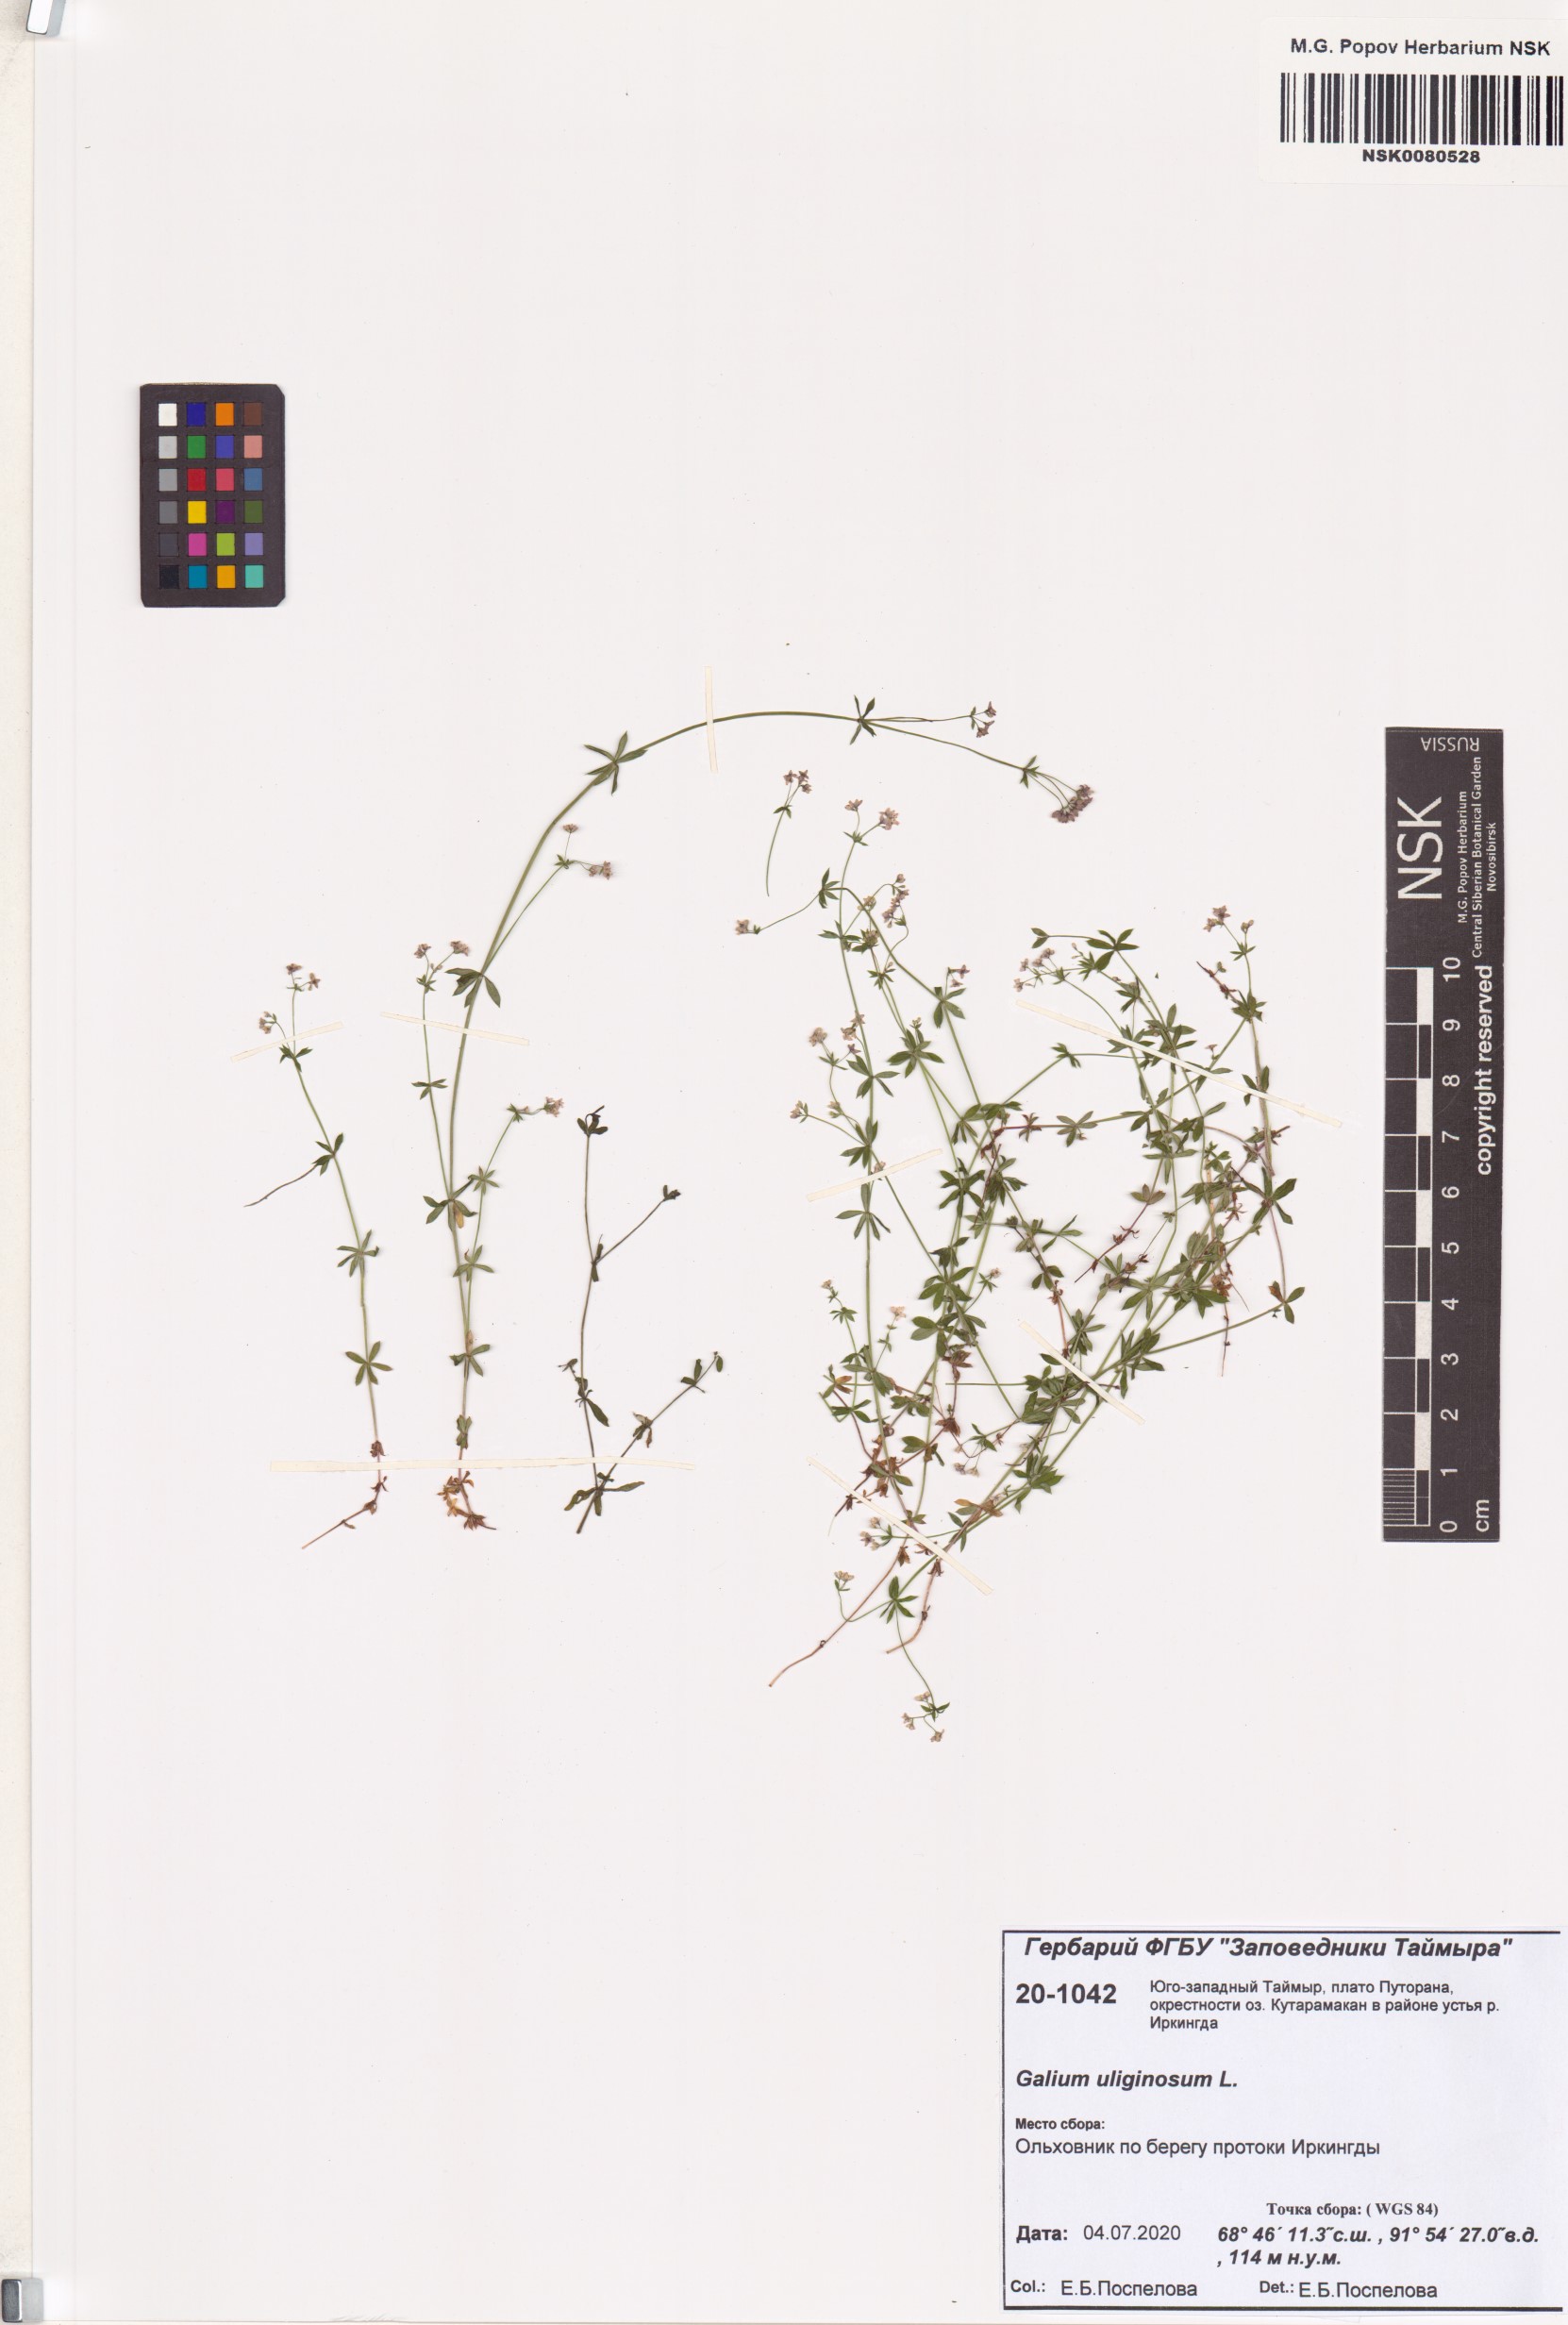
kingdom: Plantae
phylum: Tracheophyta
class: Magnoliopsida
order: Gentianales
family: Rubiaceae
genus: Galium
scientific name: Galium uliginosum
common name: Fen bedstraw
